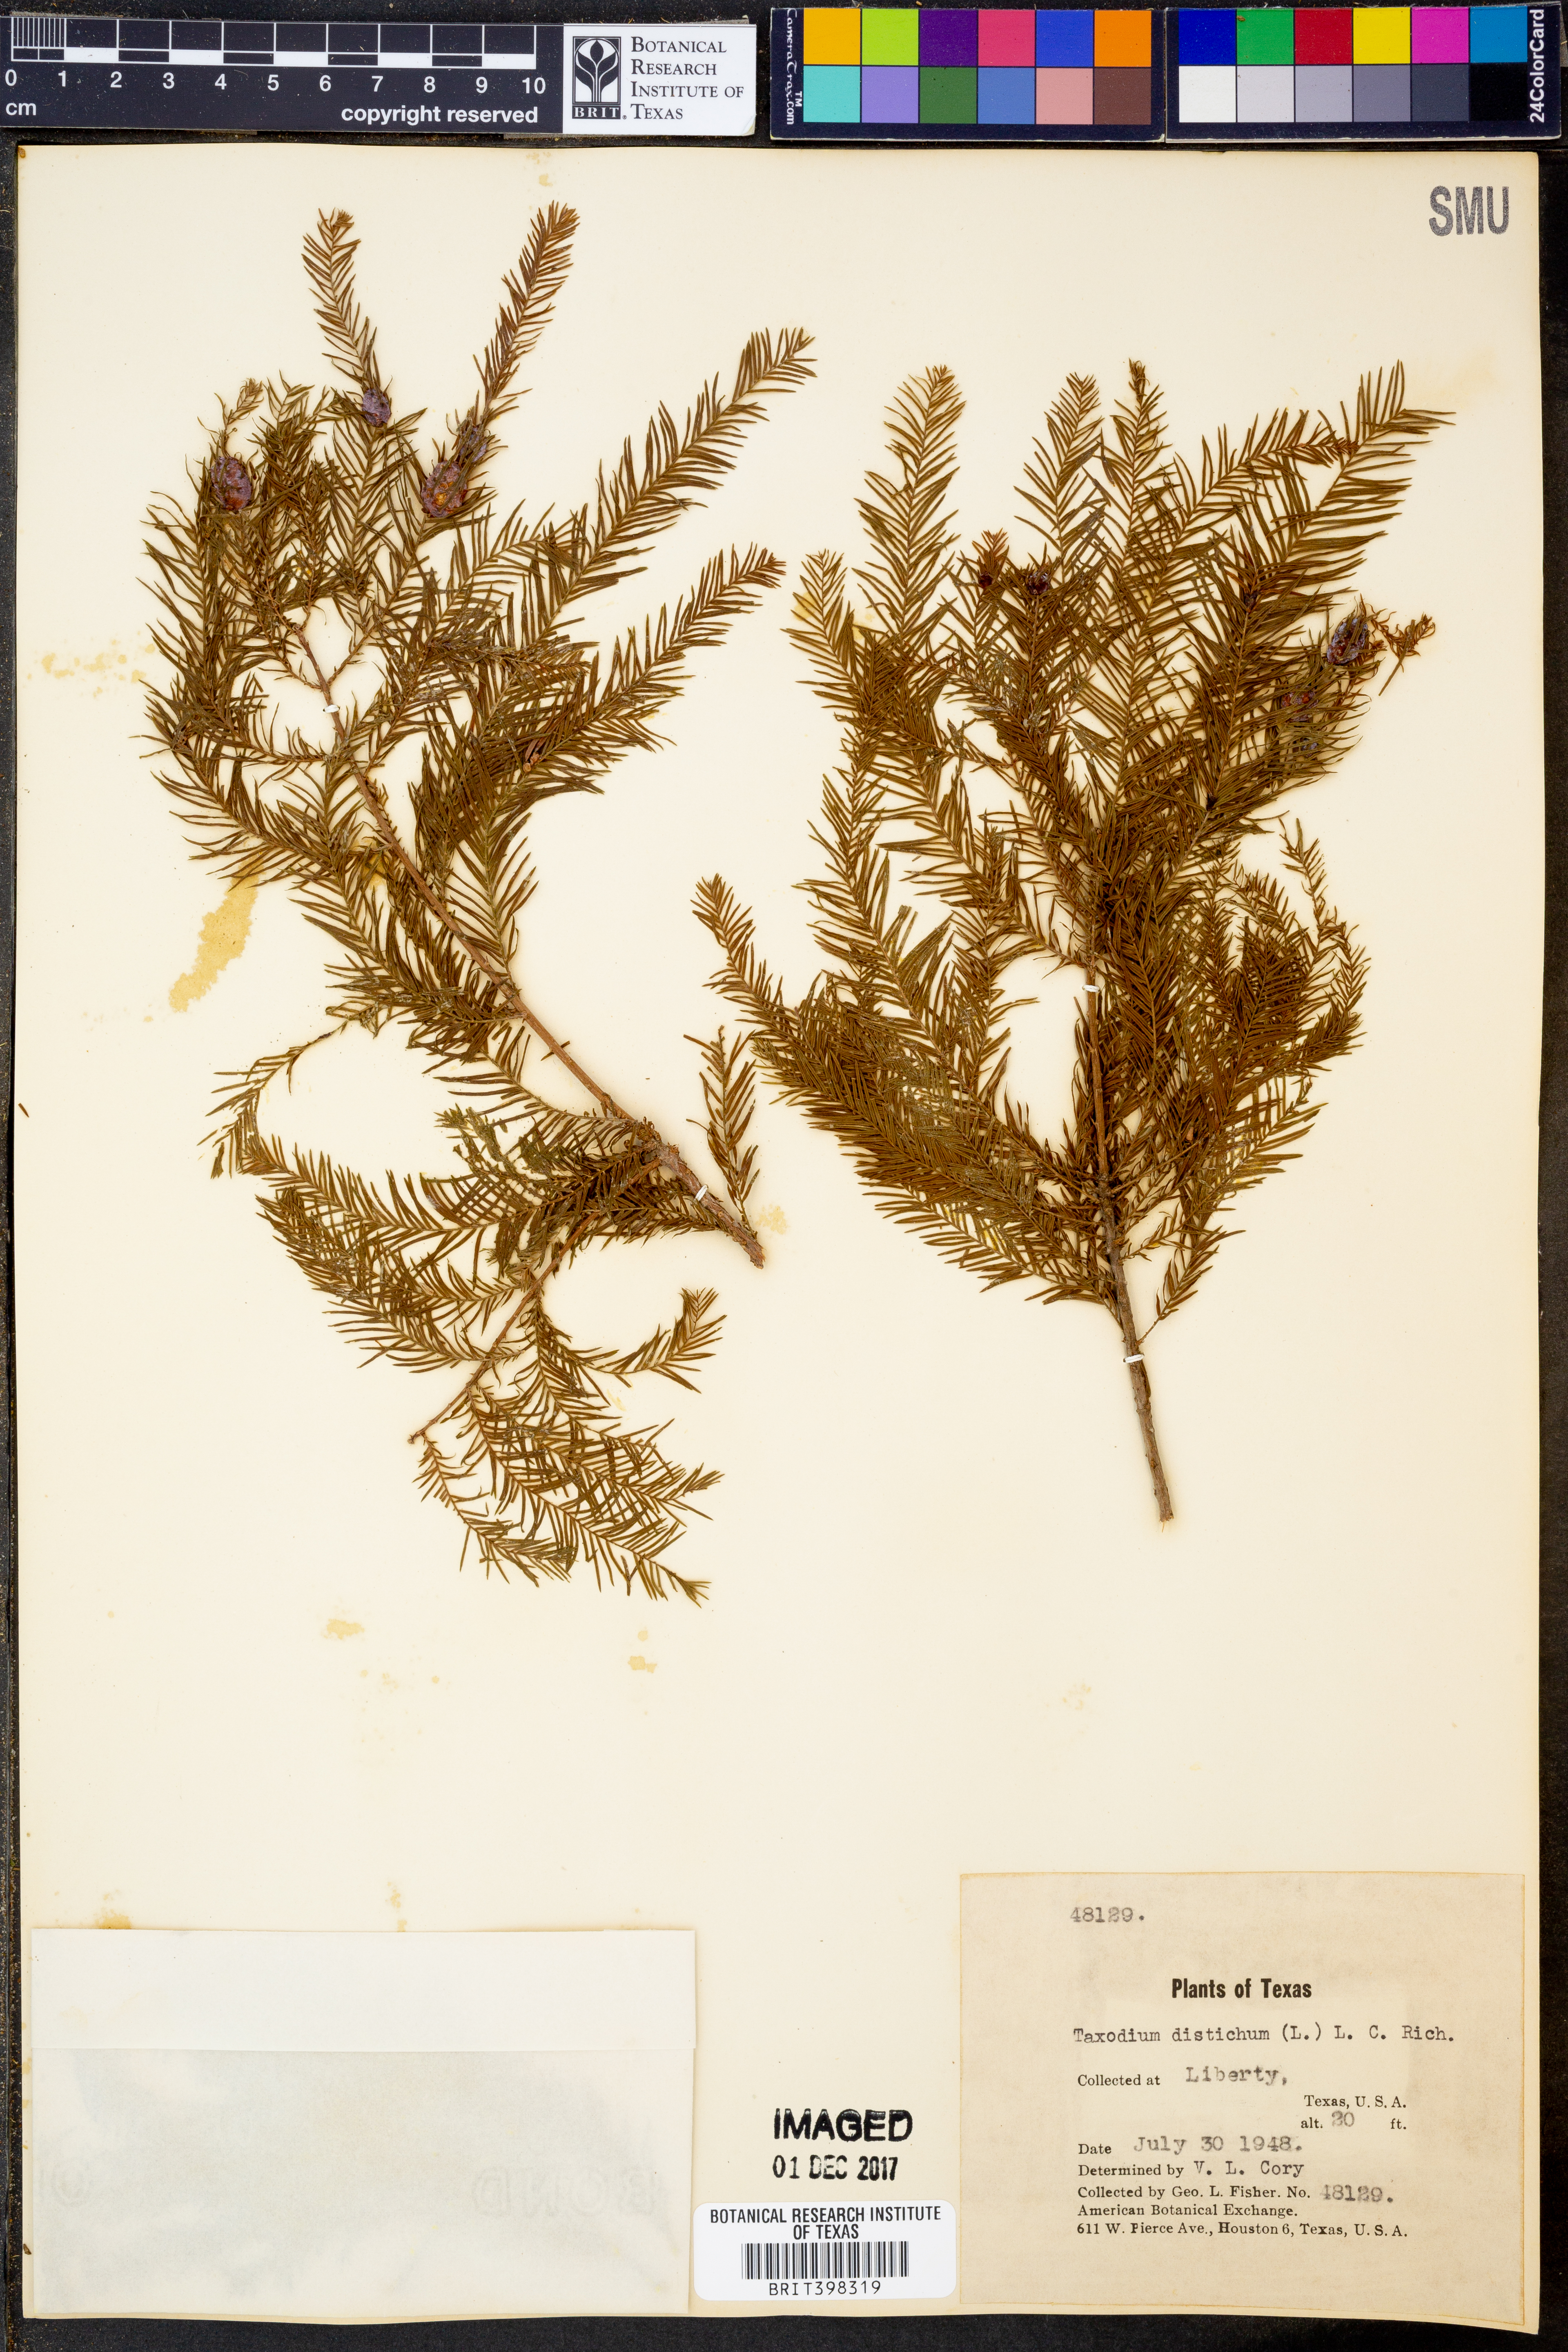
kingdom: Plantae
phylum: Tracheophyta
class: Pinopsida
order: Pinales
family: Cupressaceae
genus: Taxodium
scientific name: Taxodium distichum
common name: Bald cypress
